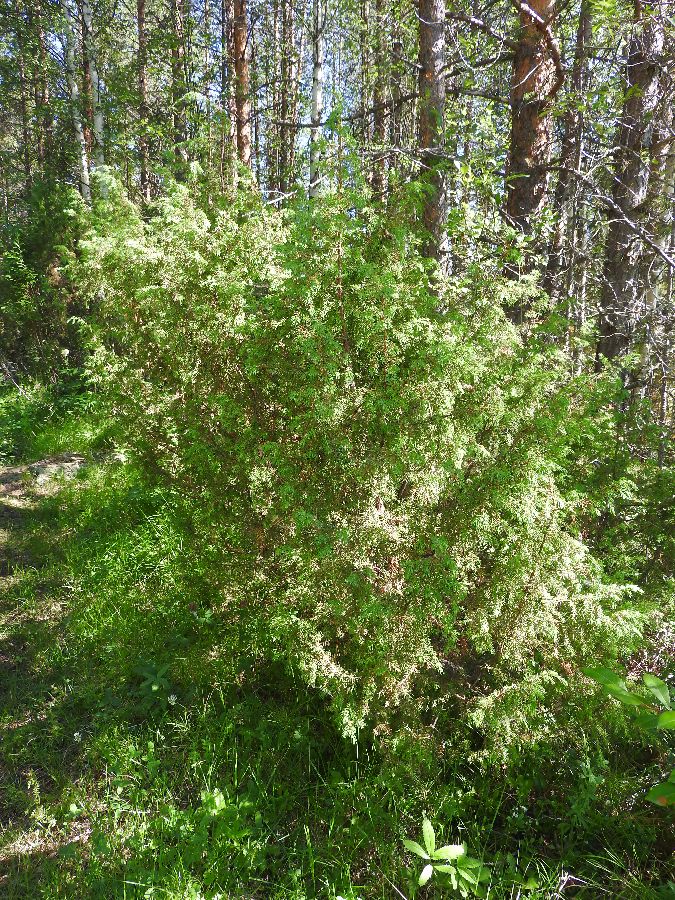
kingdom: Plantae
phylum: Tracheophyta
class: Pinopsida
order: Pinales
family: Cupressaceae
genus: Juniperus
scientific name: Juniperus communis
